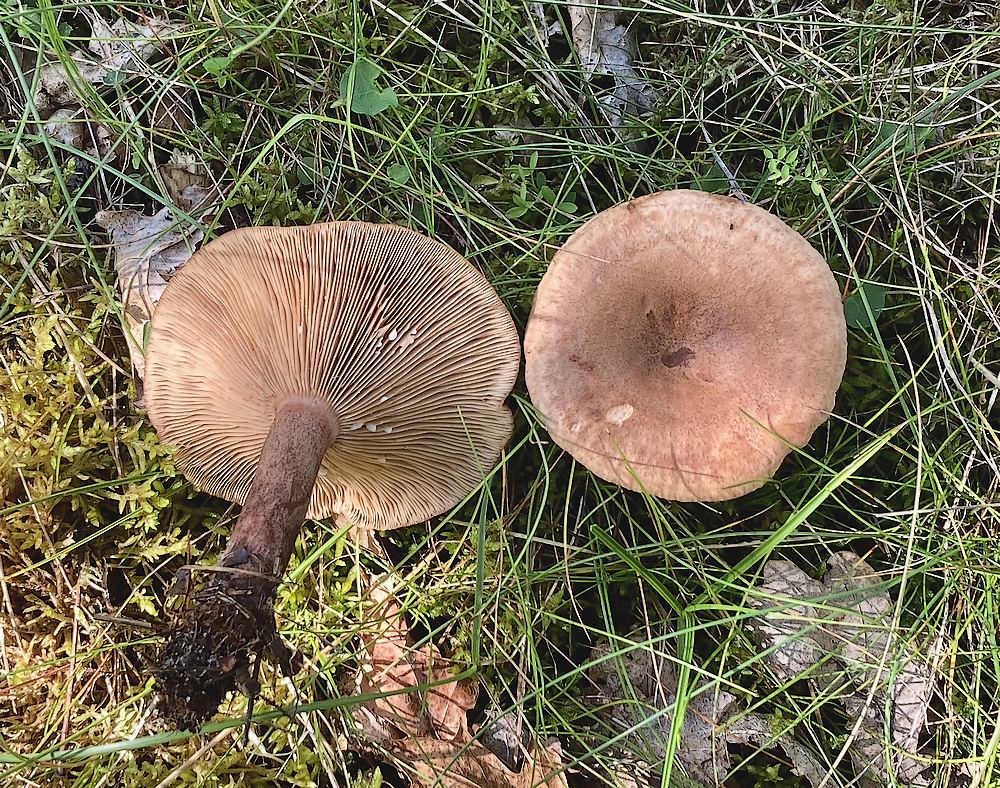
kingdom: Fungi
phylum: Basidiomycota
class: Agaricomycetes
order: Russulales
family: Russulaceae
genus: Lactarius
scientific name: Lactarius quietus
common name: ege-mælkehat
